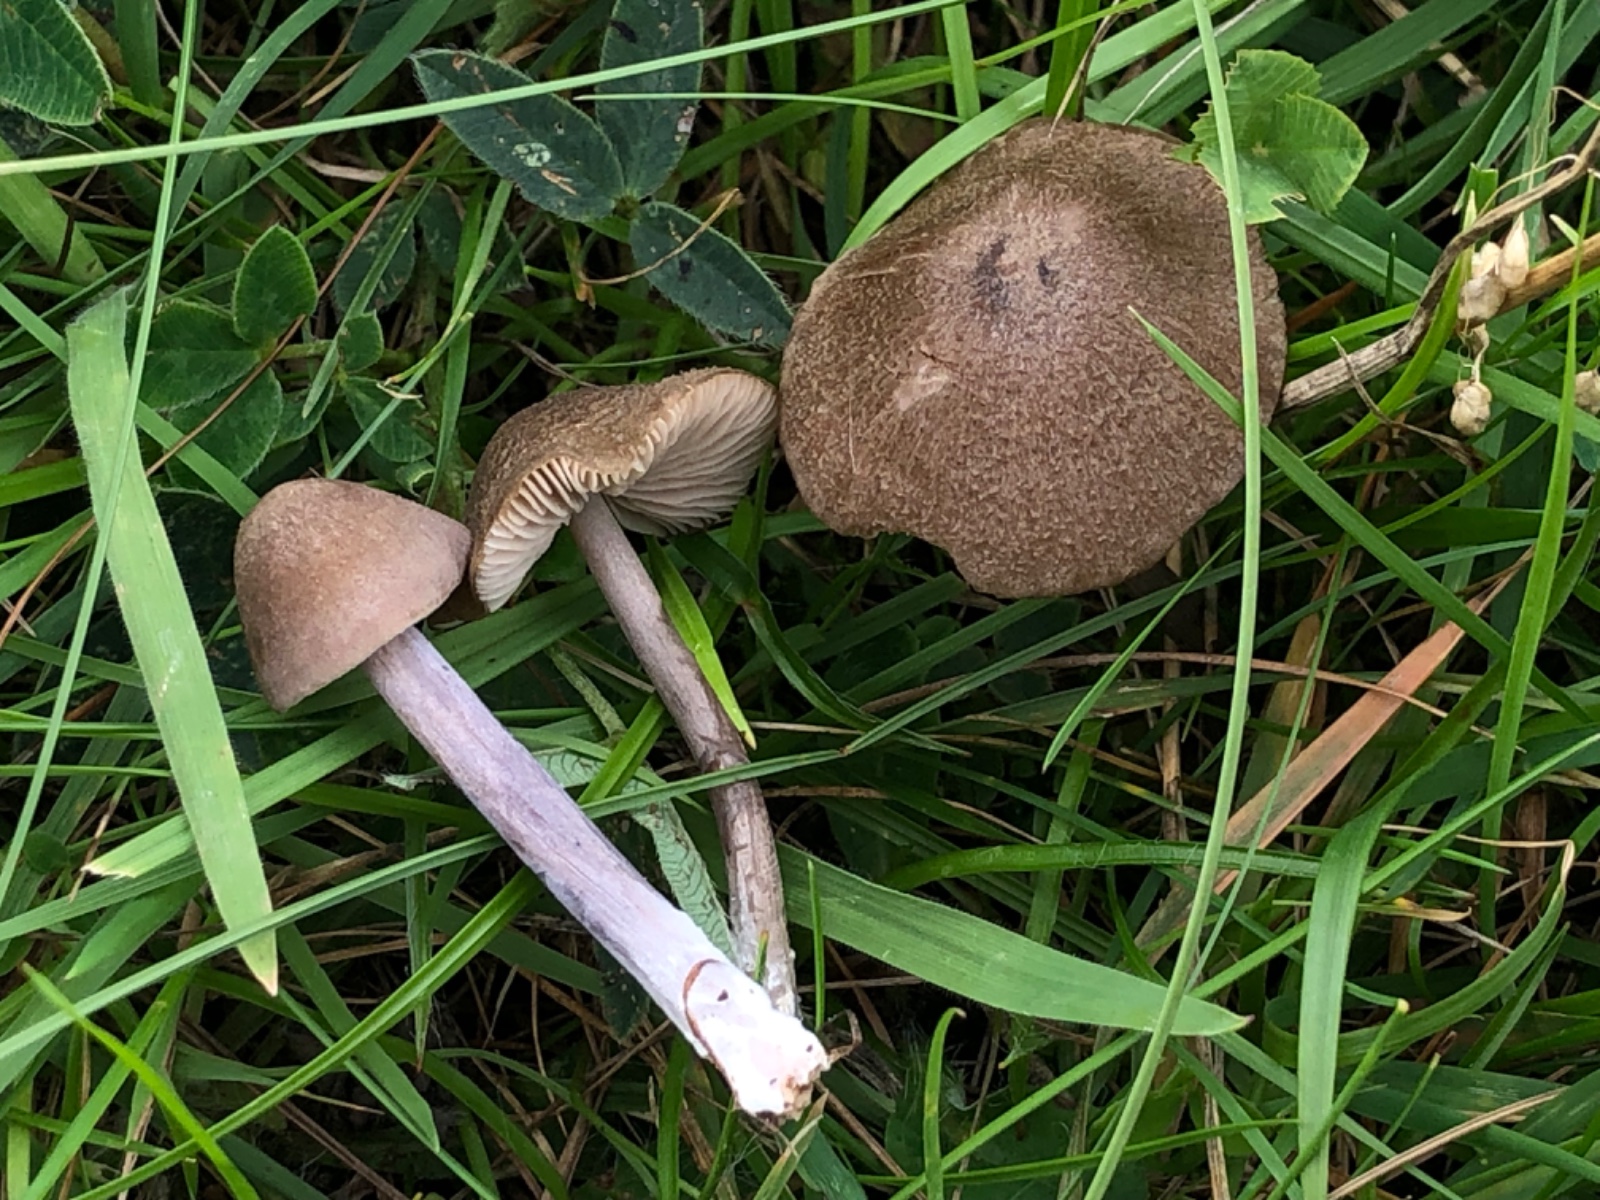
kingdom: Fungi
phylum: Basidiomycota
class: Agaricomycetes
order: Agaricales
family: Entolomataceae
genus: Entoloma
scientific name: Entoloma griseocyaneum
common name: gråblå rødblad
